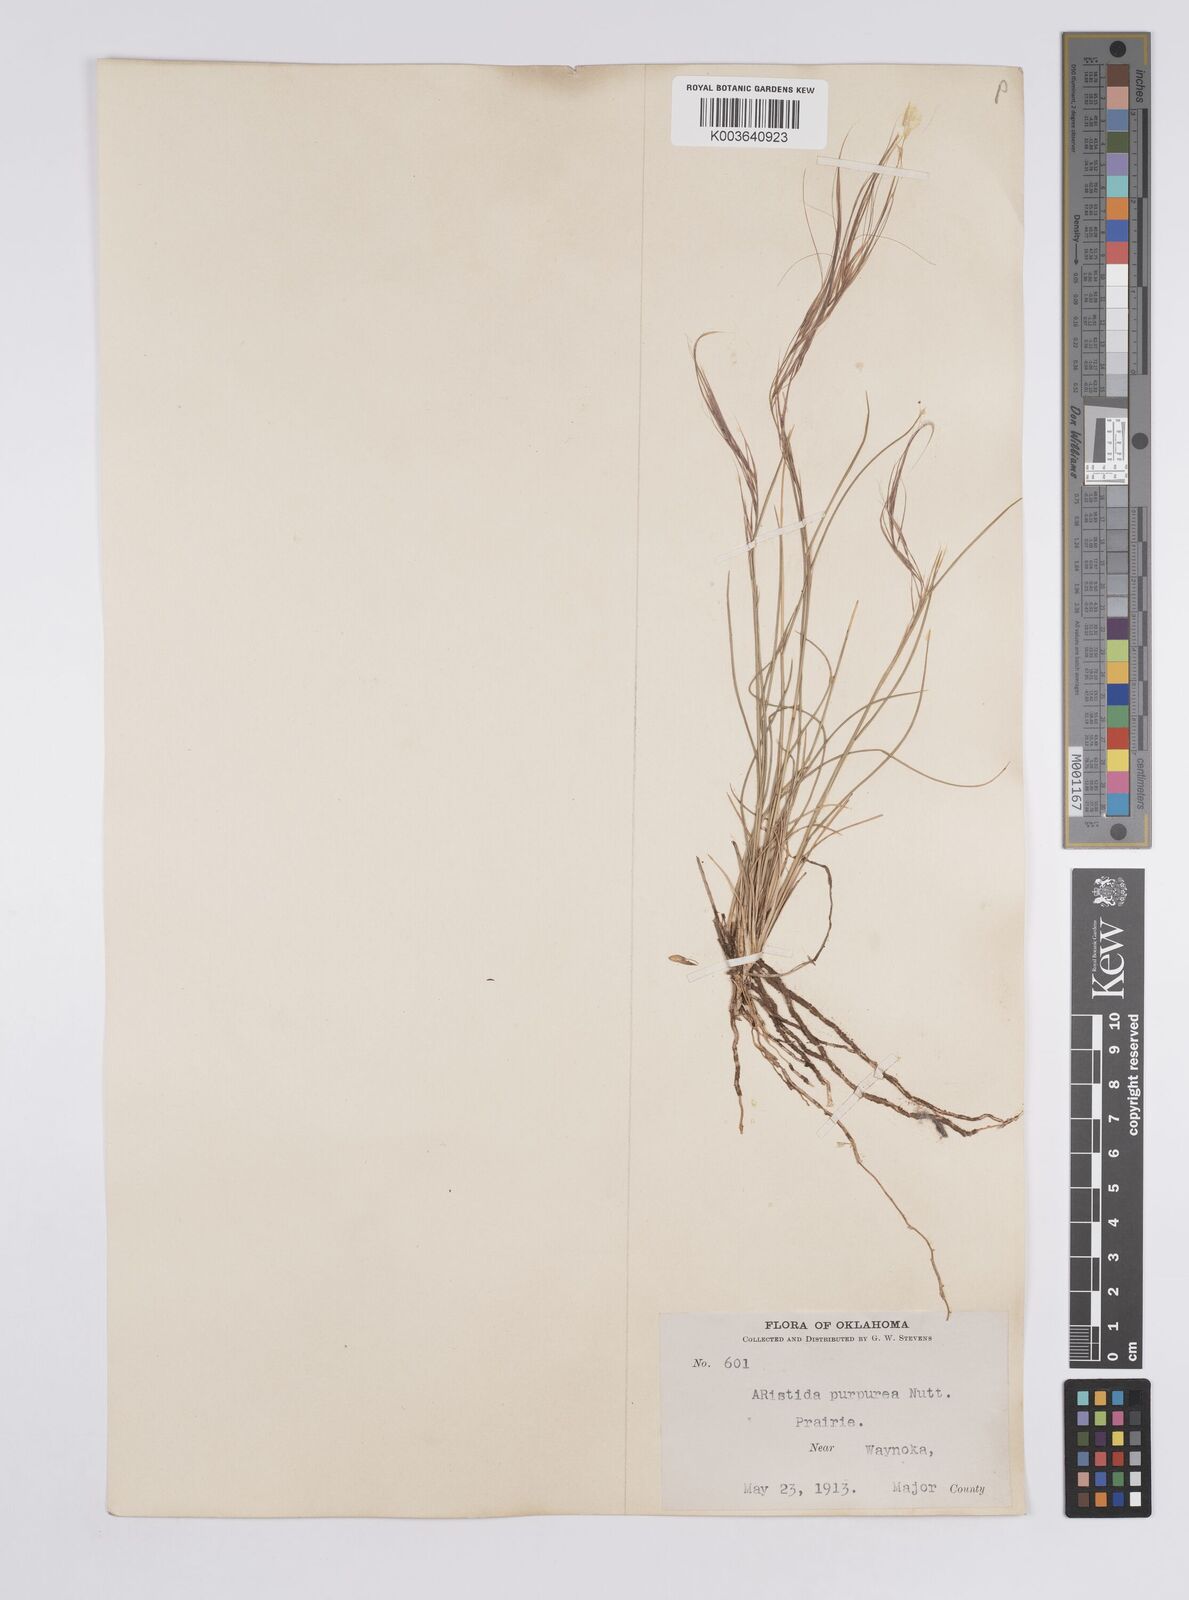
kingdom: Plantae
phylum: Tracheophyta
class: Liliopsida
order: Poales
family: Poaceae
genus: Aristida
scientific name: Aristida purpurea
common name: Purple threeawn
